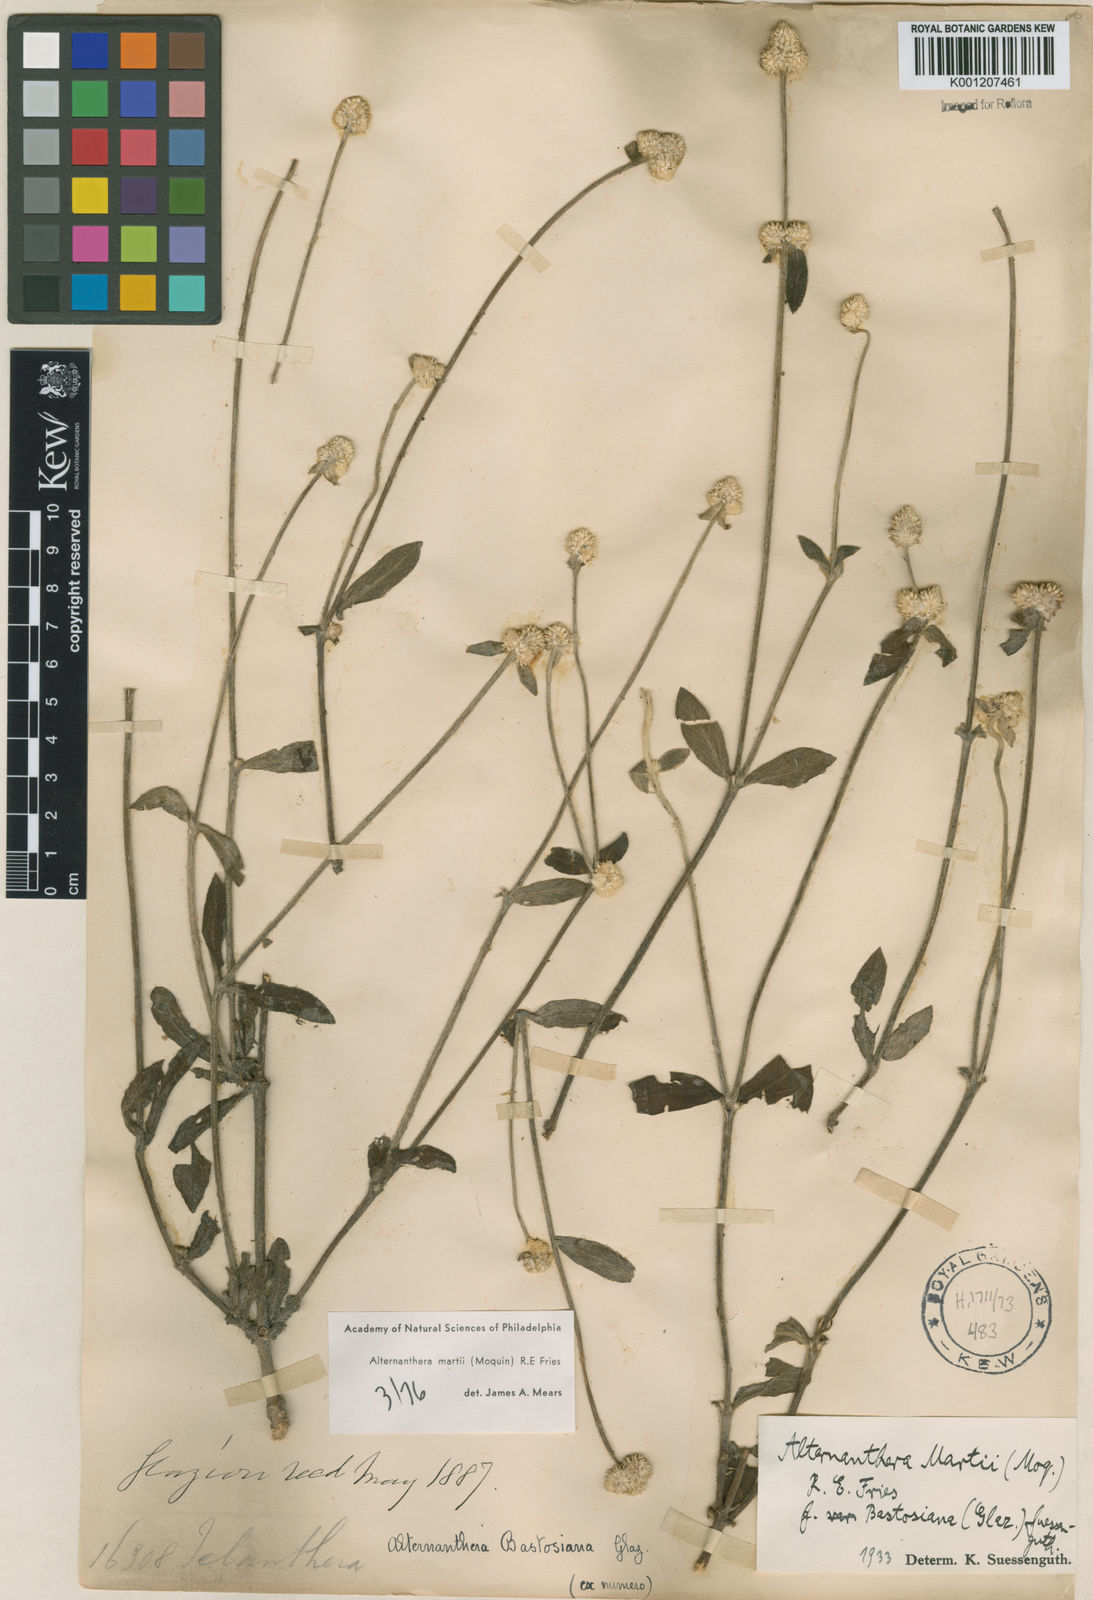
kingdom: Plantae
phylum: Tracheophyta
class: Magnoliopsida
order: Caryophyllales
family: Amaranthaceae
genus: Alternanthera
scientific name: Alternanthera martii
